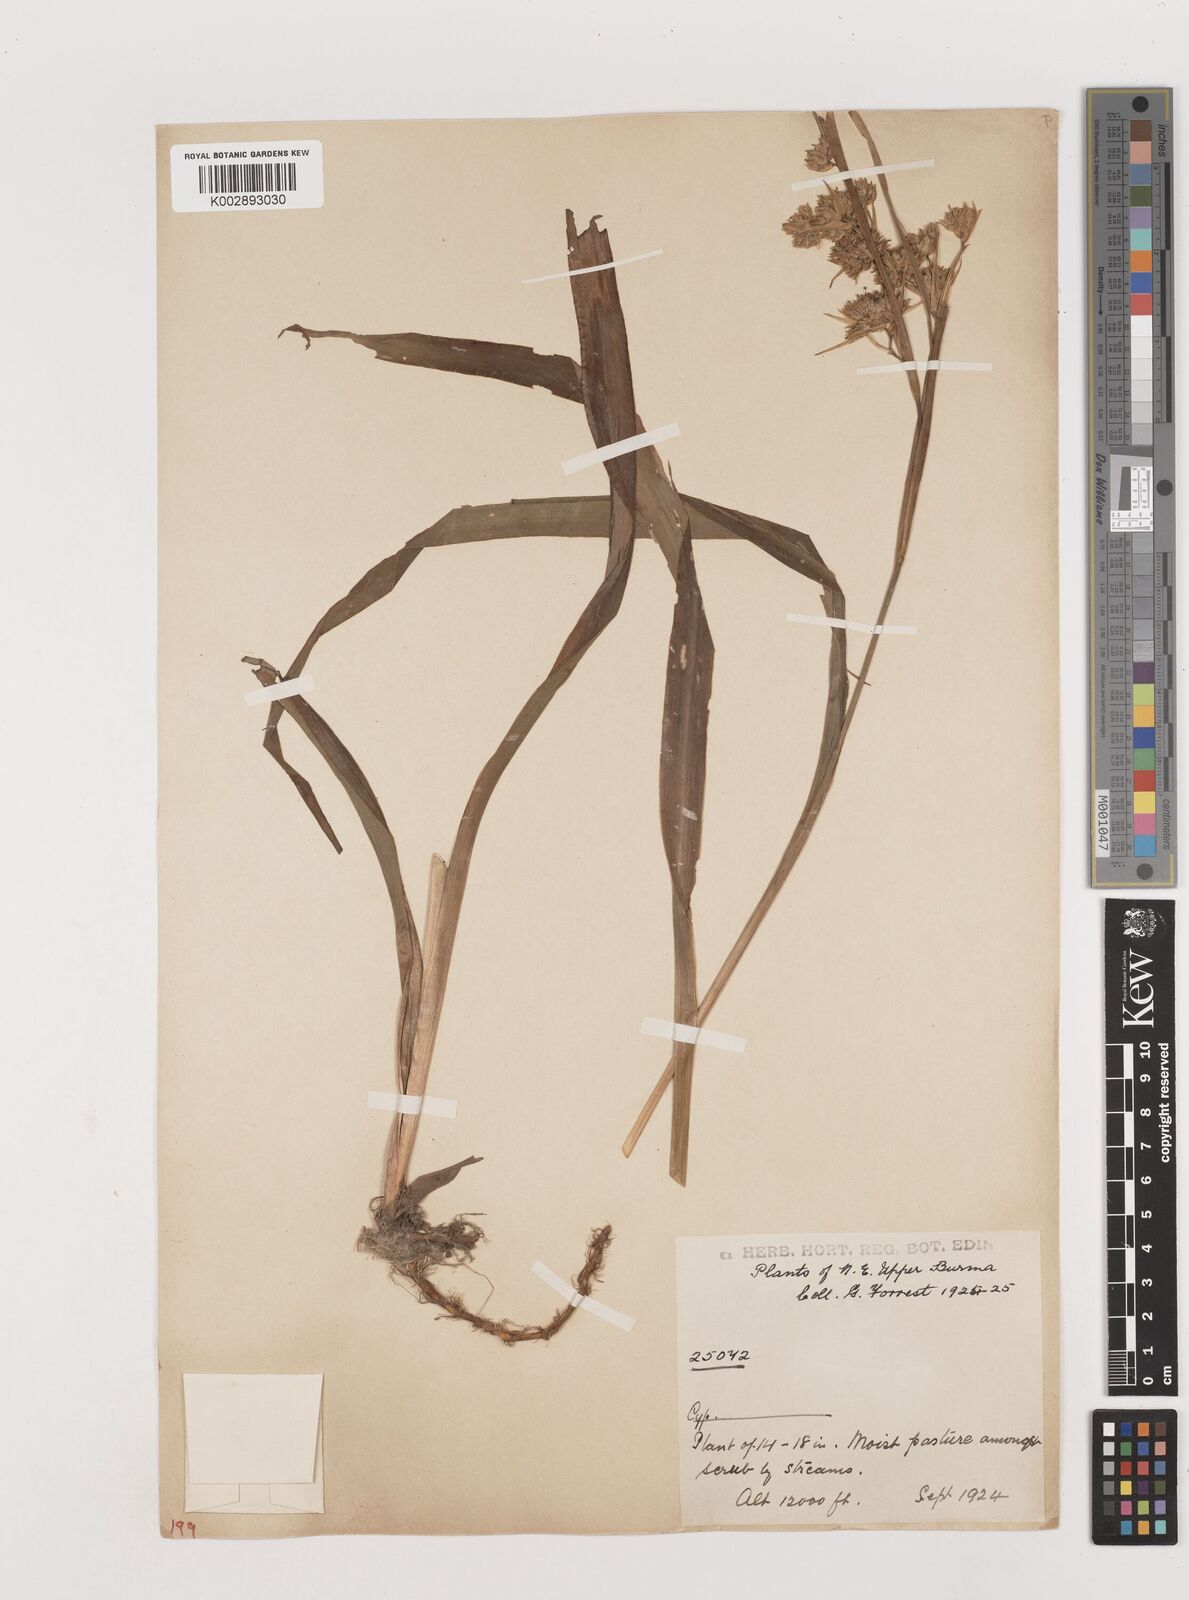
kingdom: Plantae
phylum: Tracheophyta
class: Liliopsida
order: Poales
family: Juncaceae
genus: Juncus
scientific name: Juncus crassistylus
